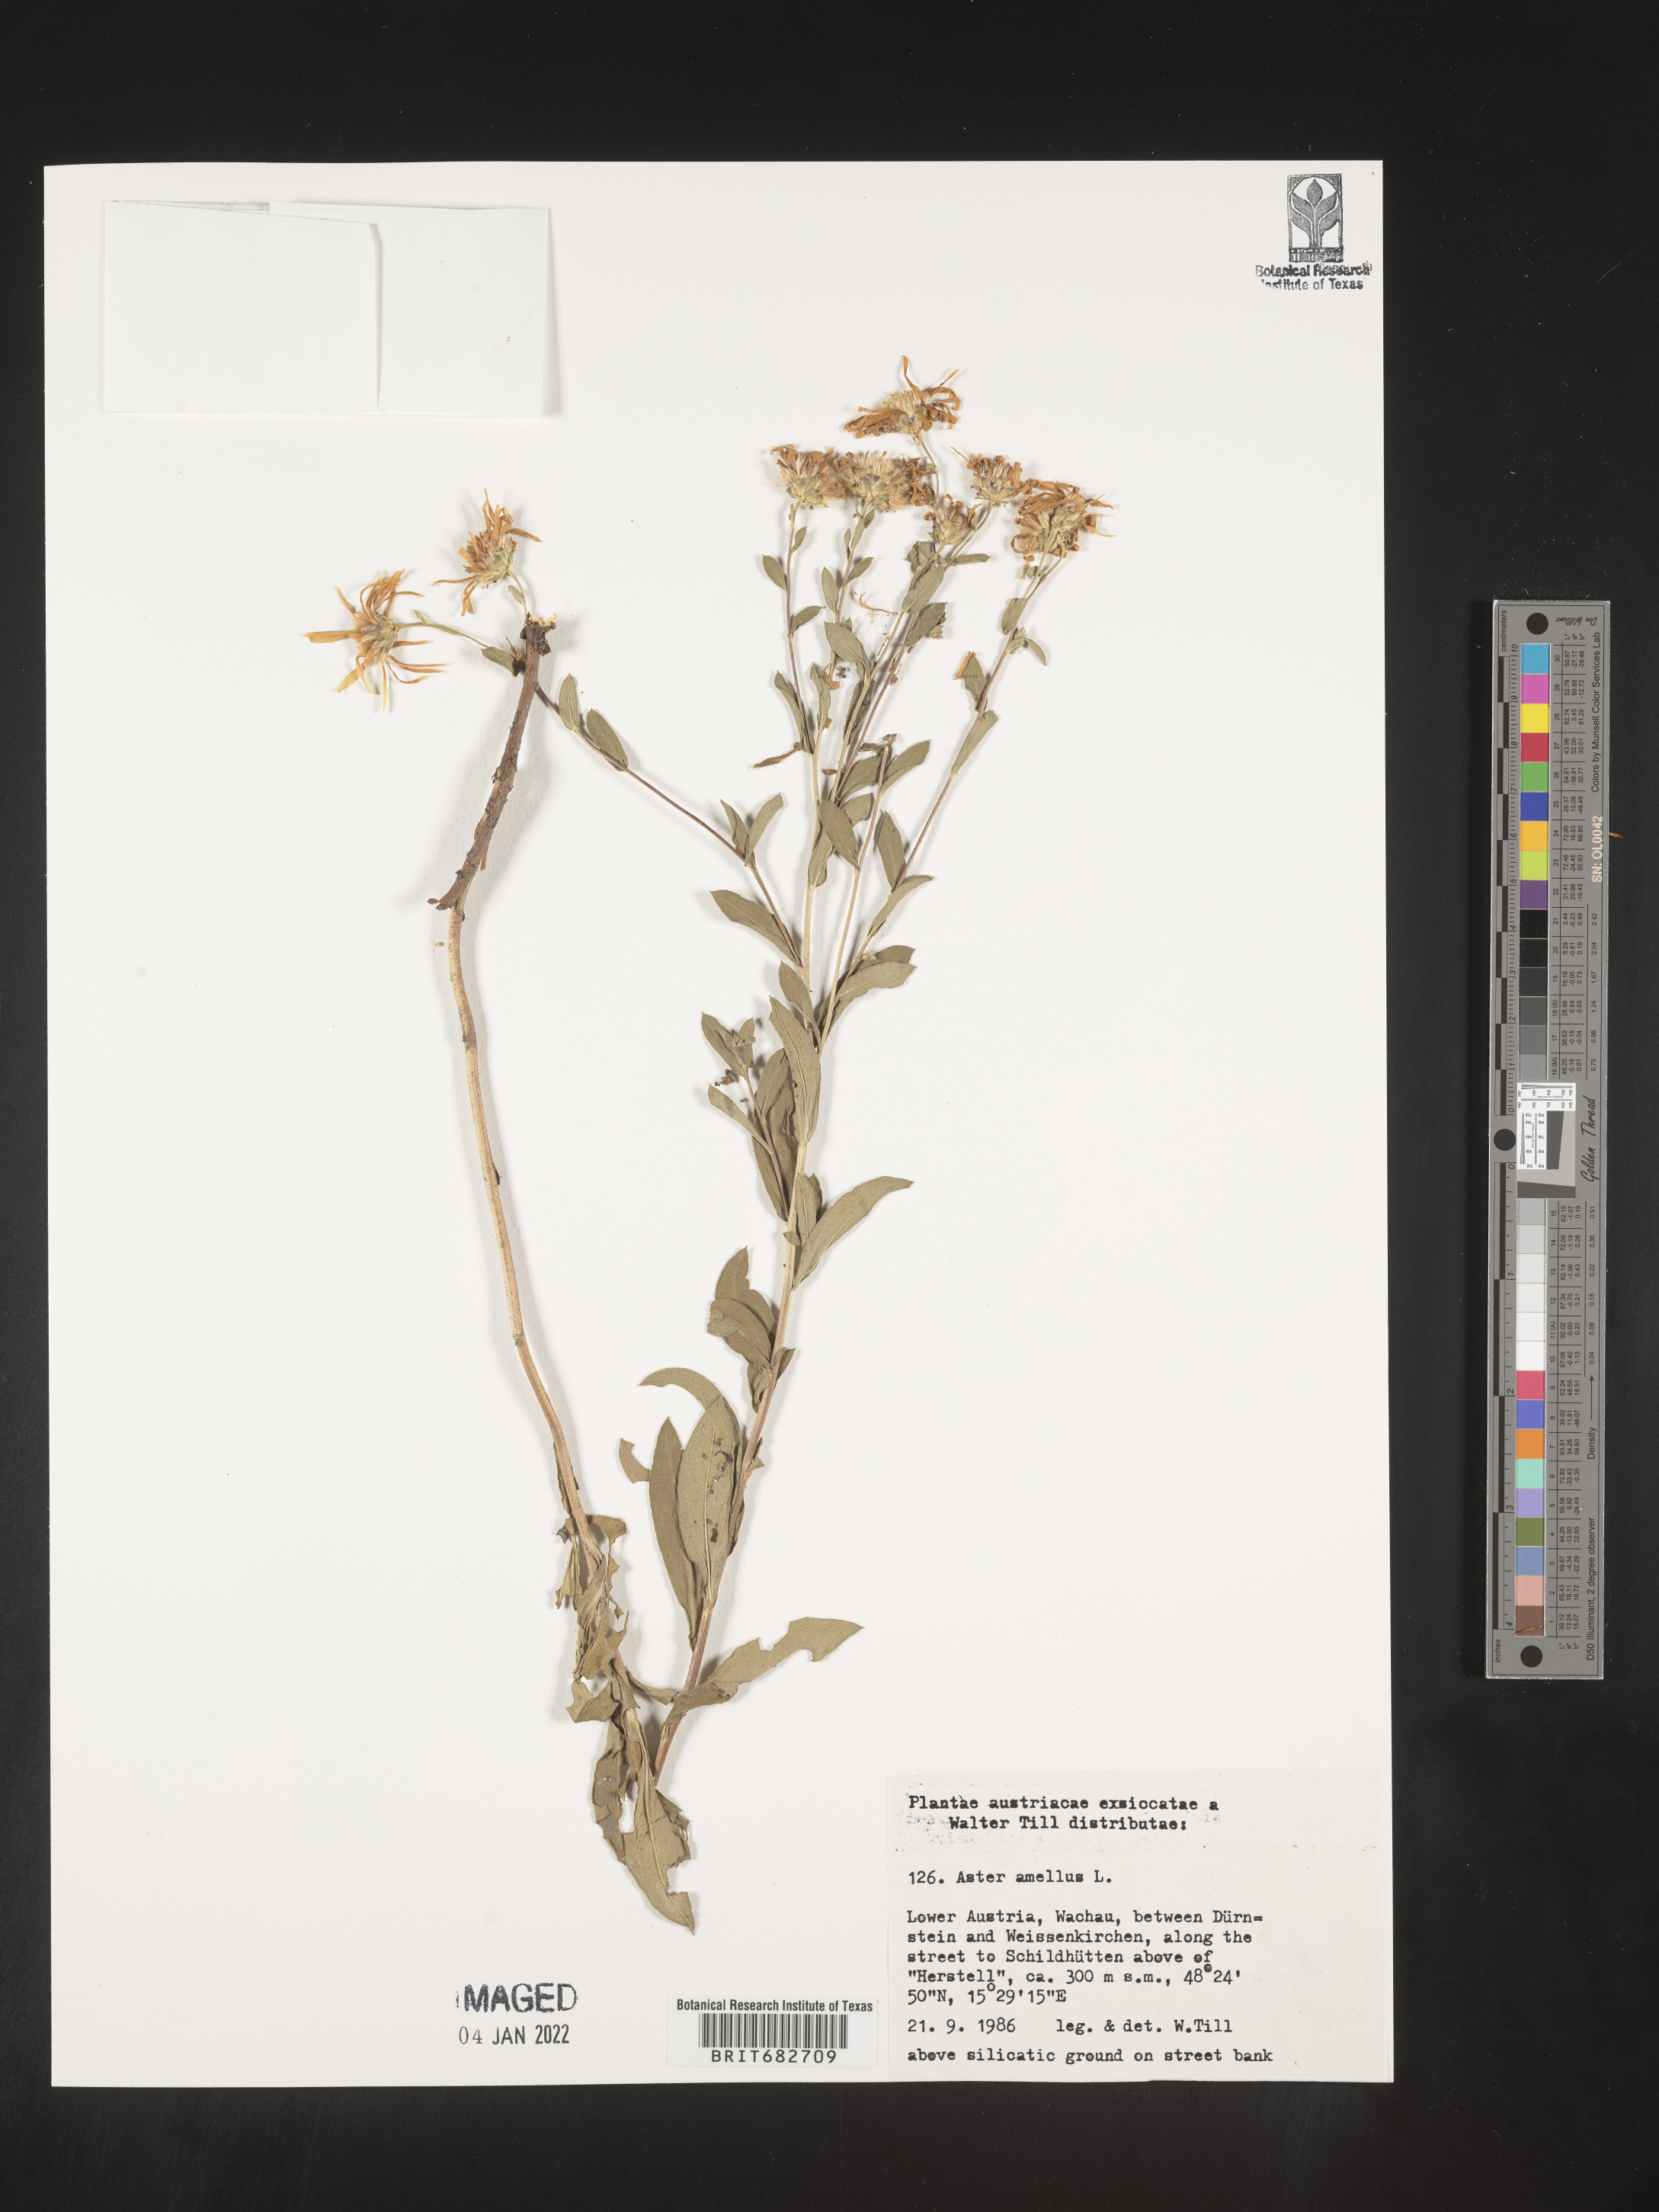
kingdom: Plantae
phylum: Tracheophyta
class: Magnoliopsida
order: Asterales
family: Asteraceae
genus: Aster
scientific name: Aster
